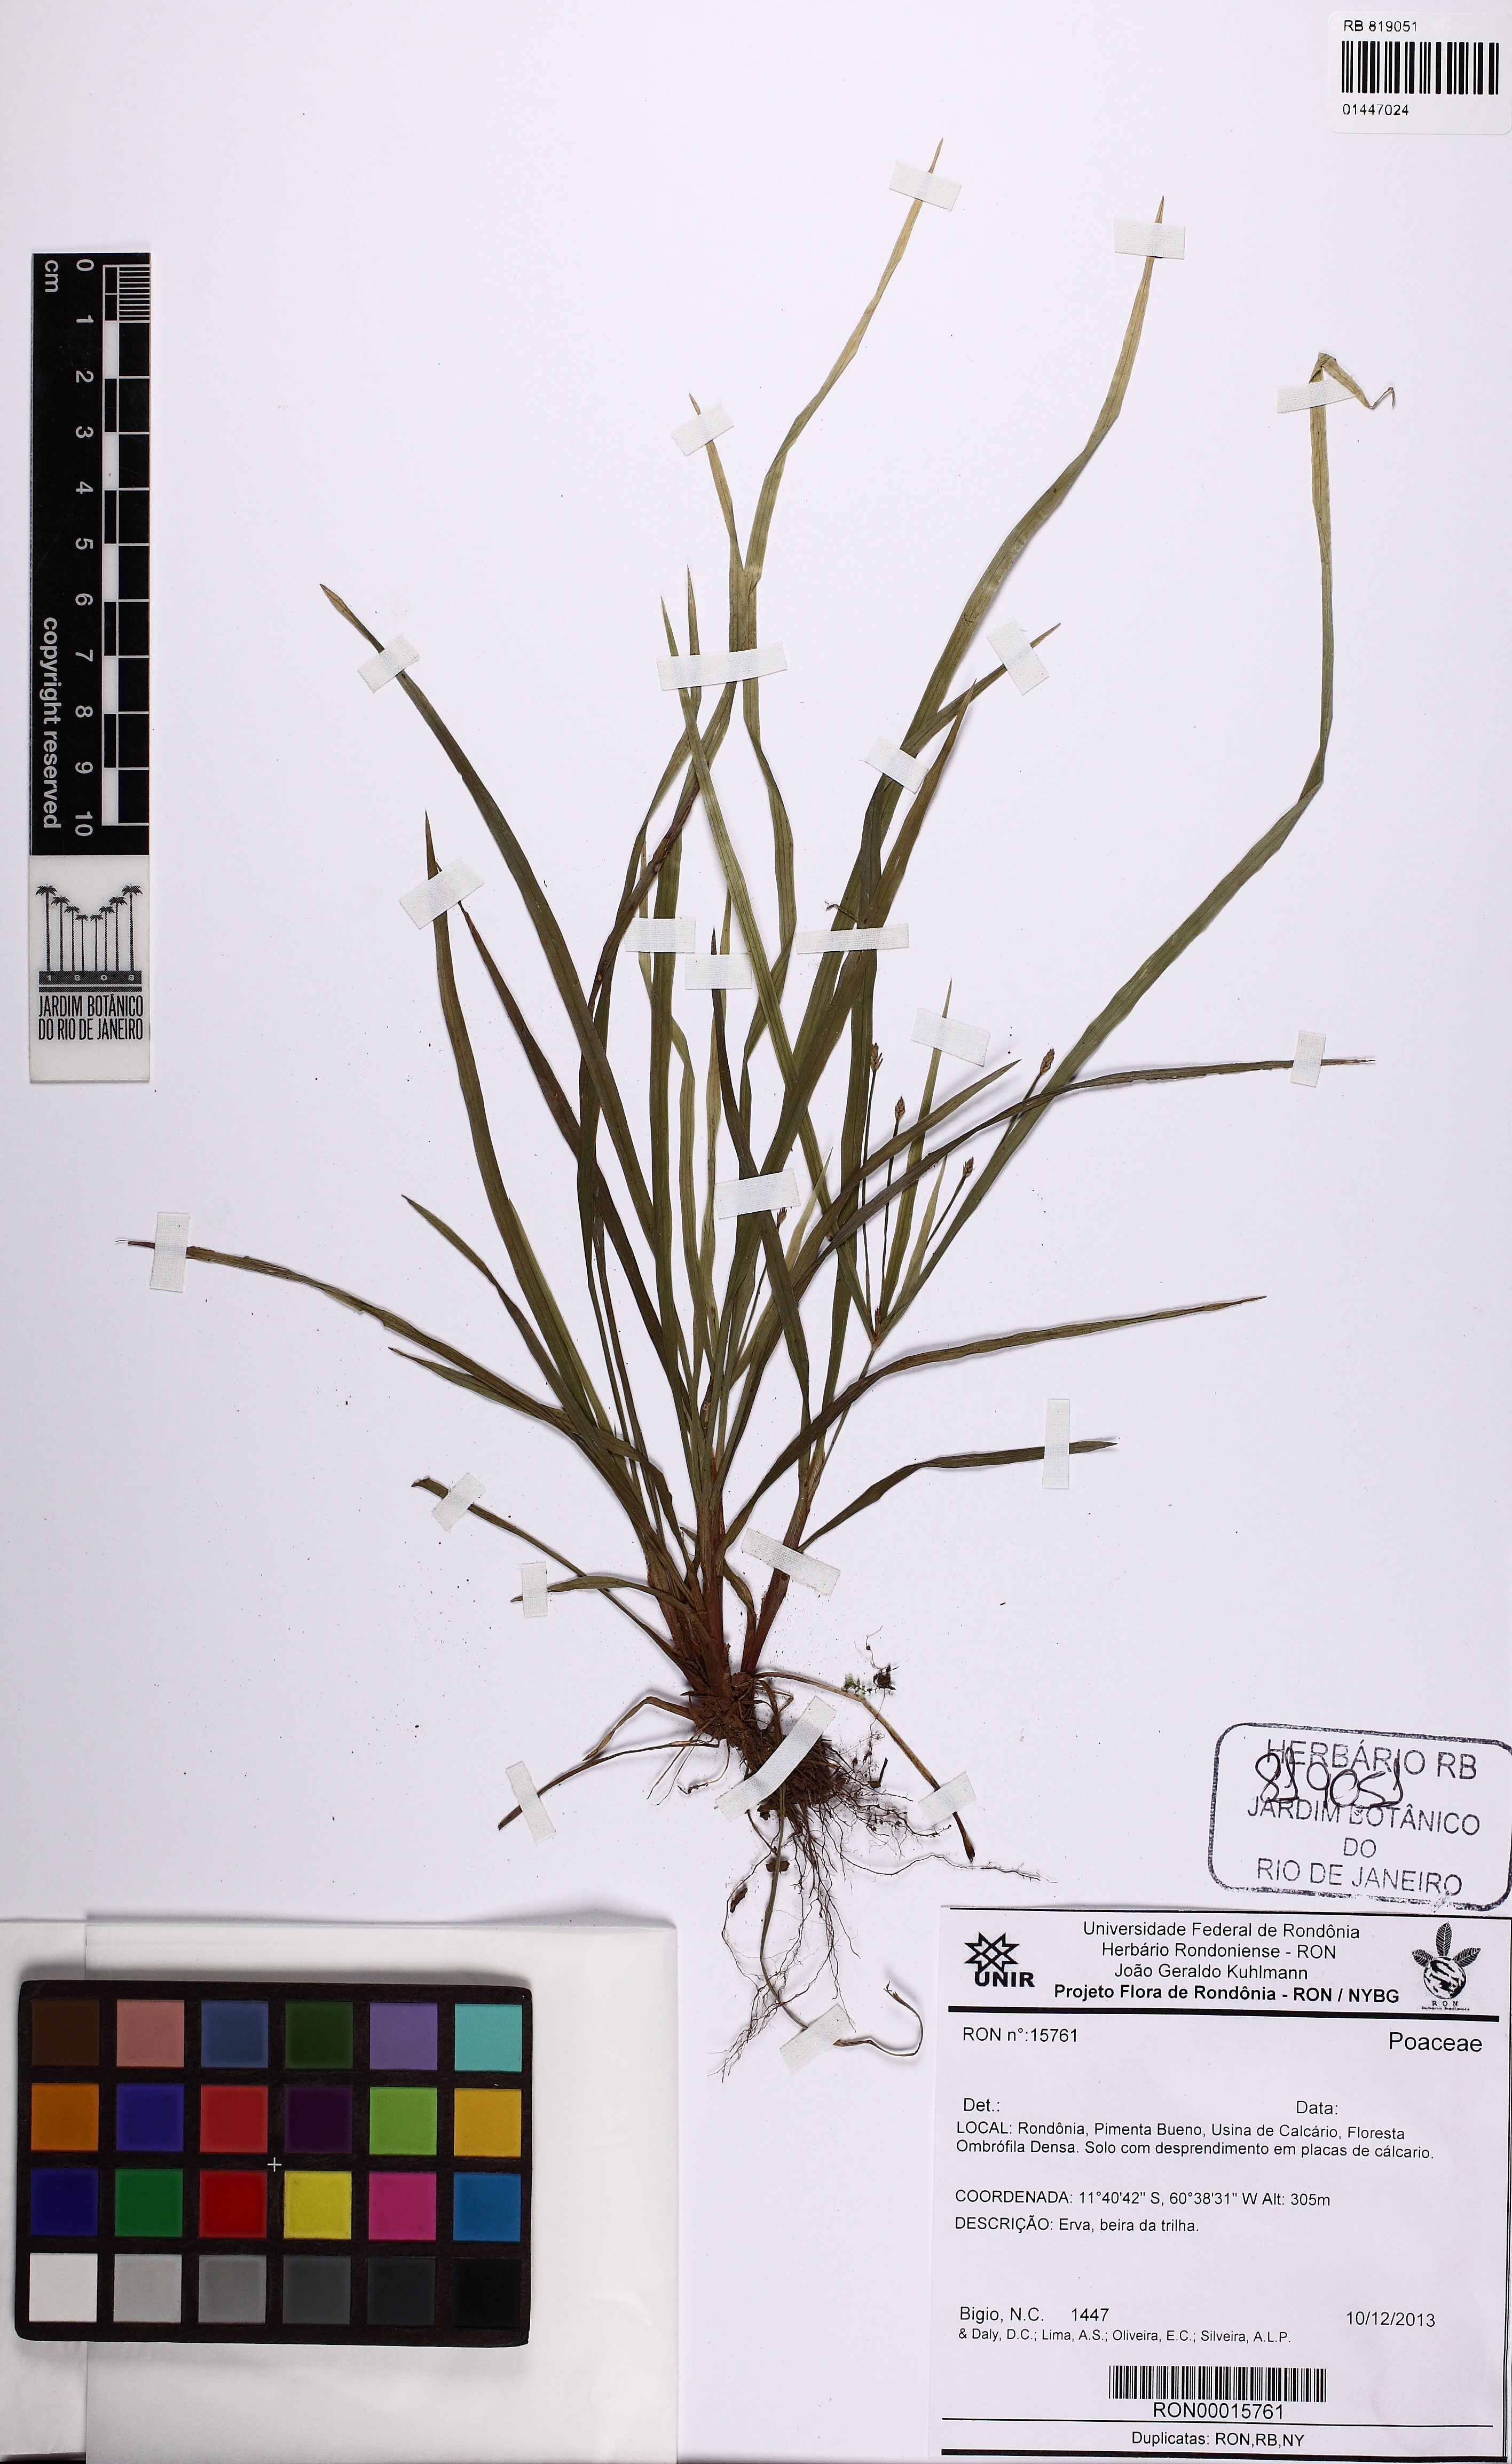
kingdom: Plantae
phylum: Tracheophyta
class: Liliopsida
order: Poales
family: Poaceae
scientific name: Poaceae
